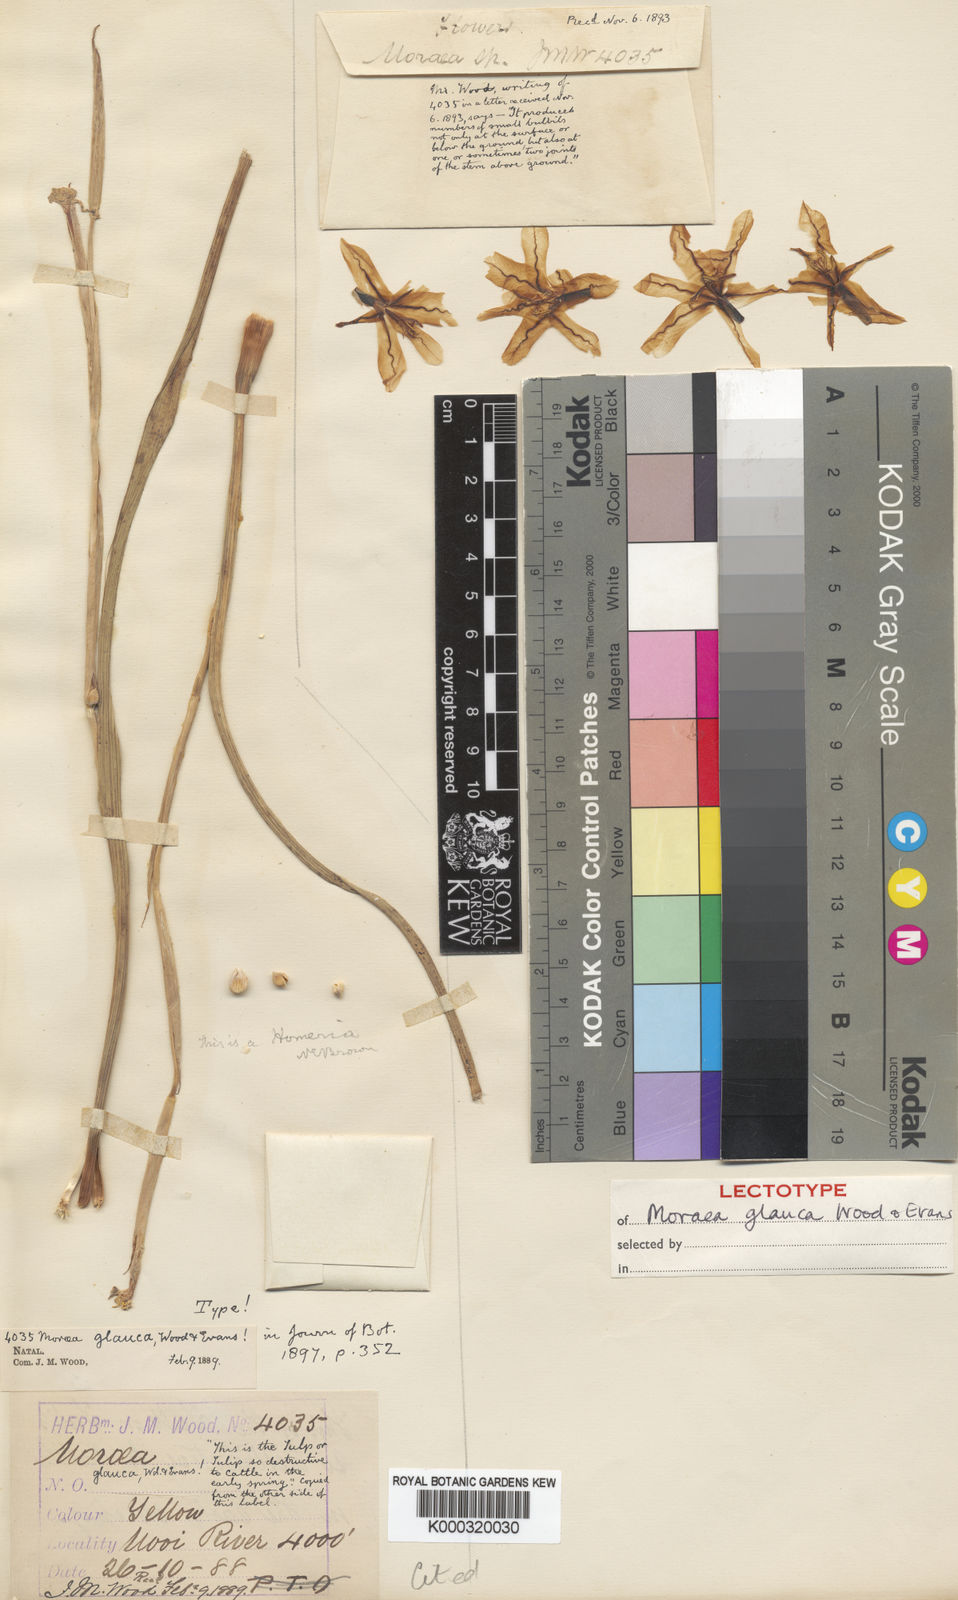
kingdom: Plantae
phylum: Tracheophyta
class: Liliopsida
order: Asparagales
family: Iridaceae
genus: Moraea
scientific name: Moraea pallida
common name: Yellow tulp
